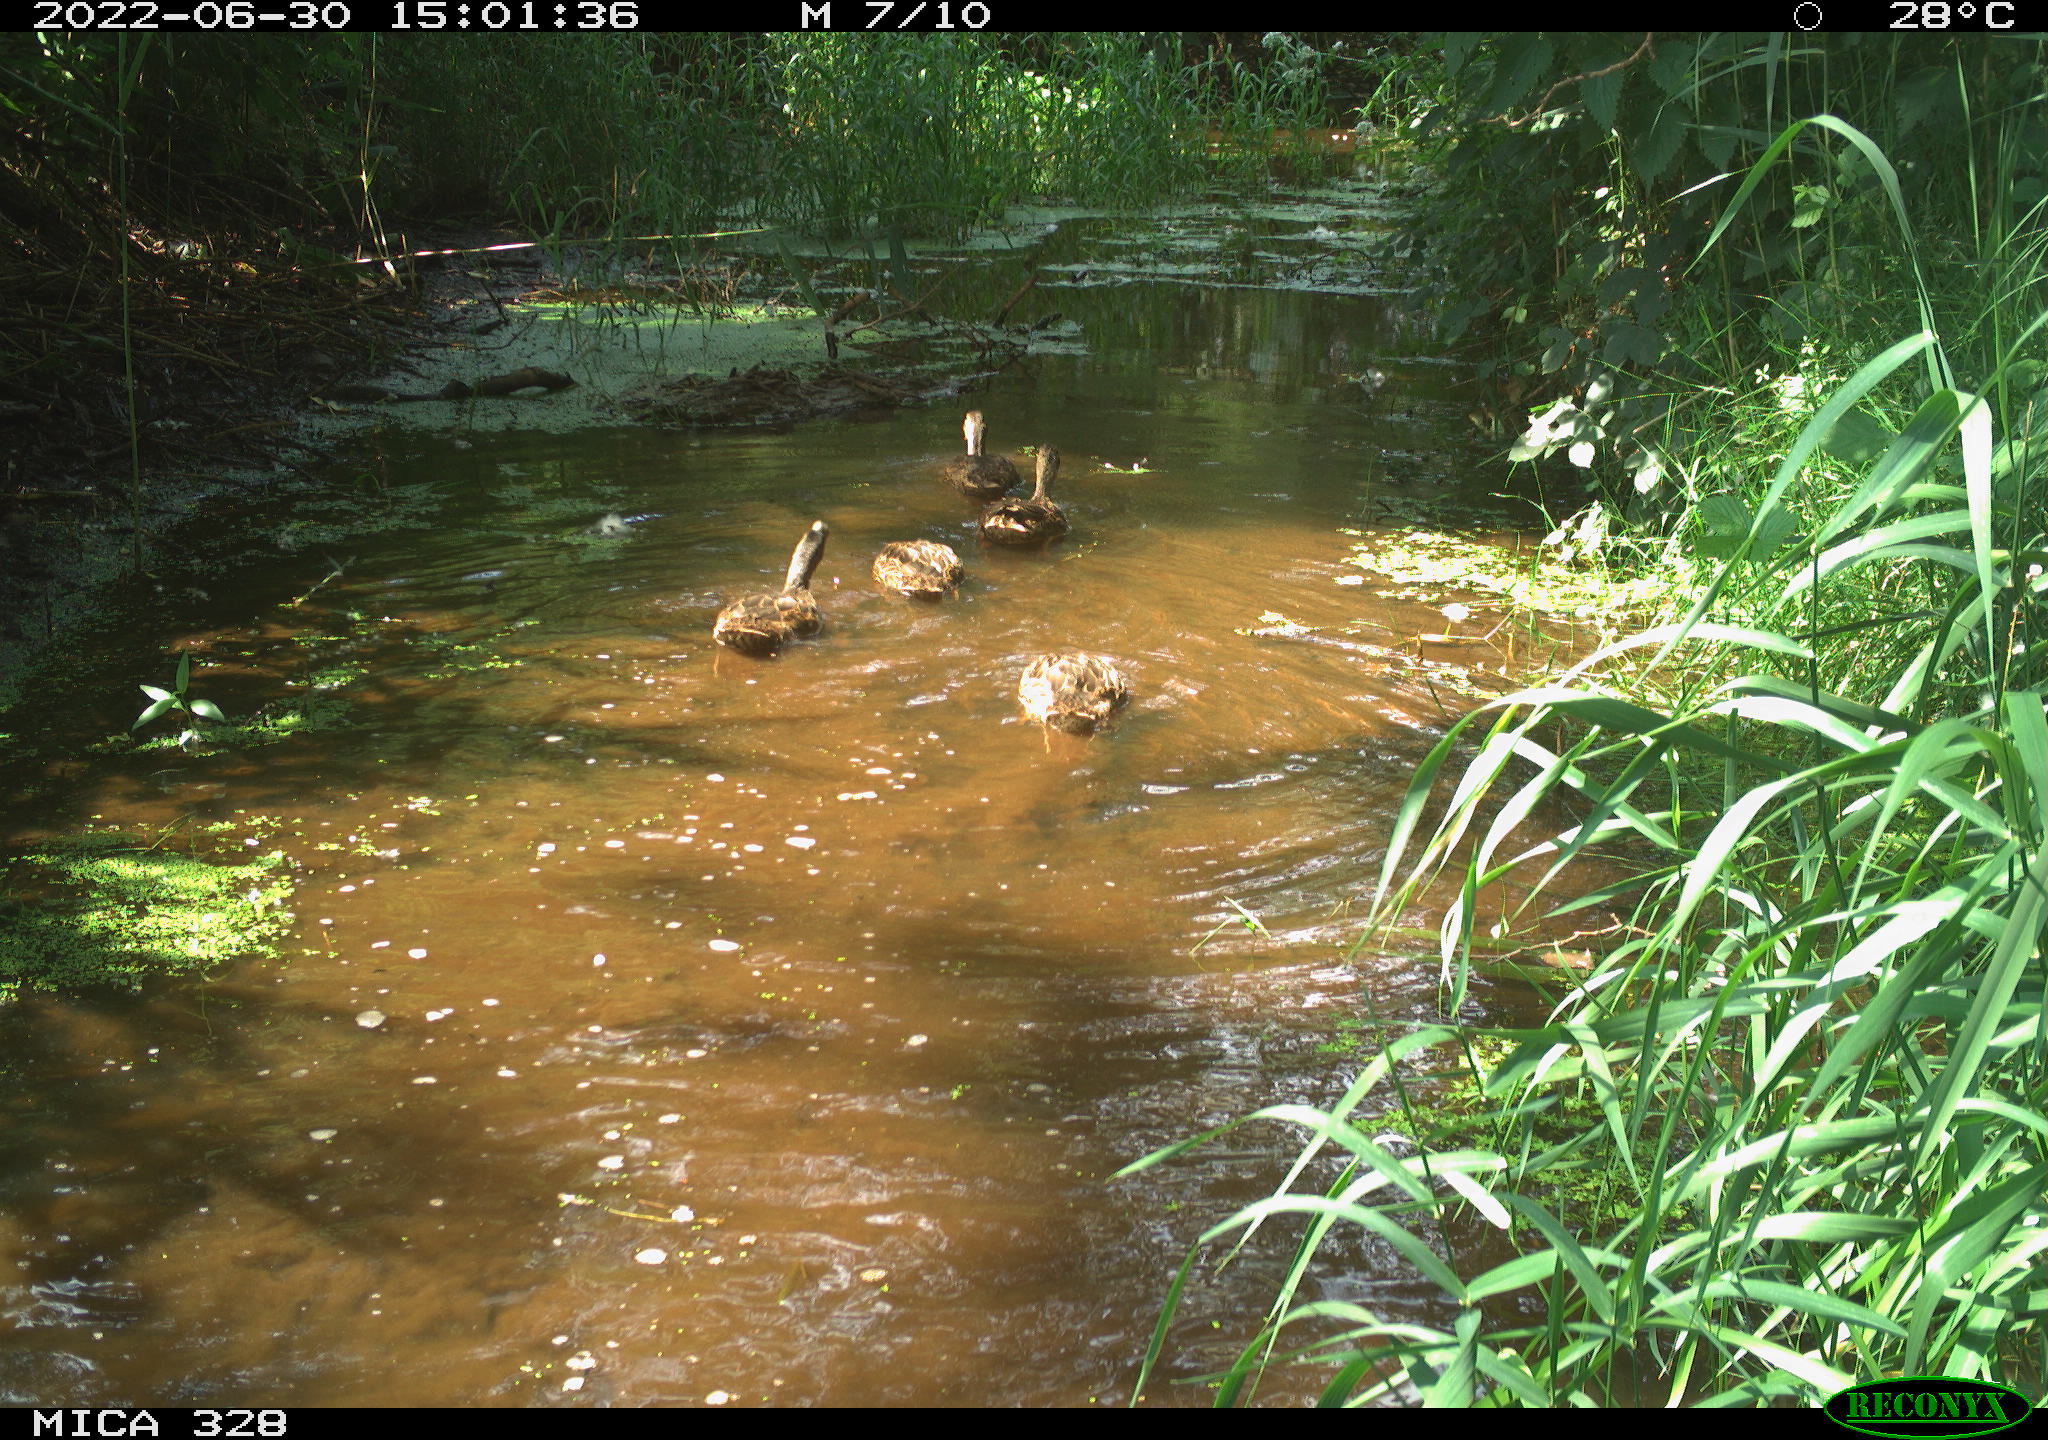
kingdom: Animalia
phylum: Chordata
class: Aves
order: Anseriformes
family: Anatidae
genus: Anas
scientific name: Anas platyrhynchos
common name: Mallard
